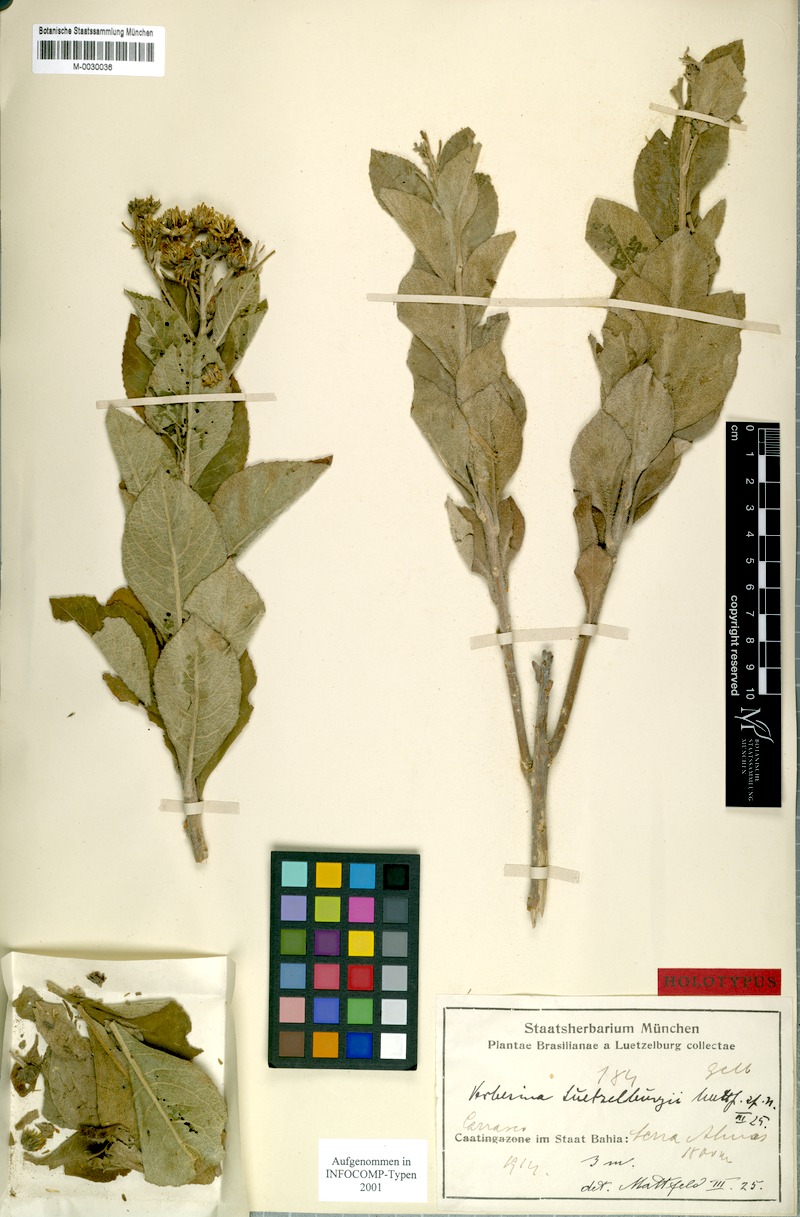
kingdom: Plantae
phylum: Tracheophyta
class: Magnoliopsida
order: Asterales
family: Asteraceae
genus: Verbesina
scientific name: Verbesina luetzelburgii
